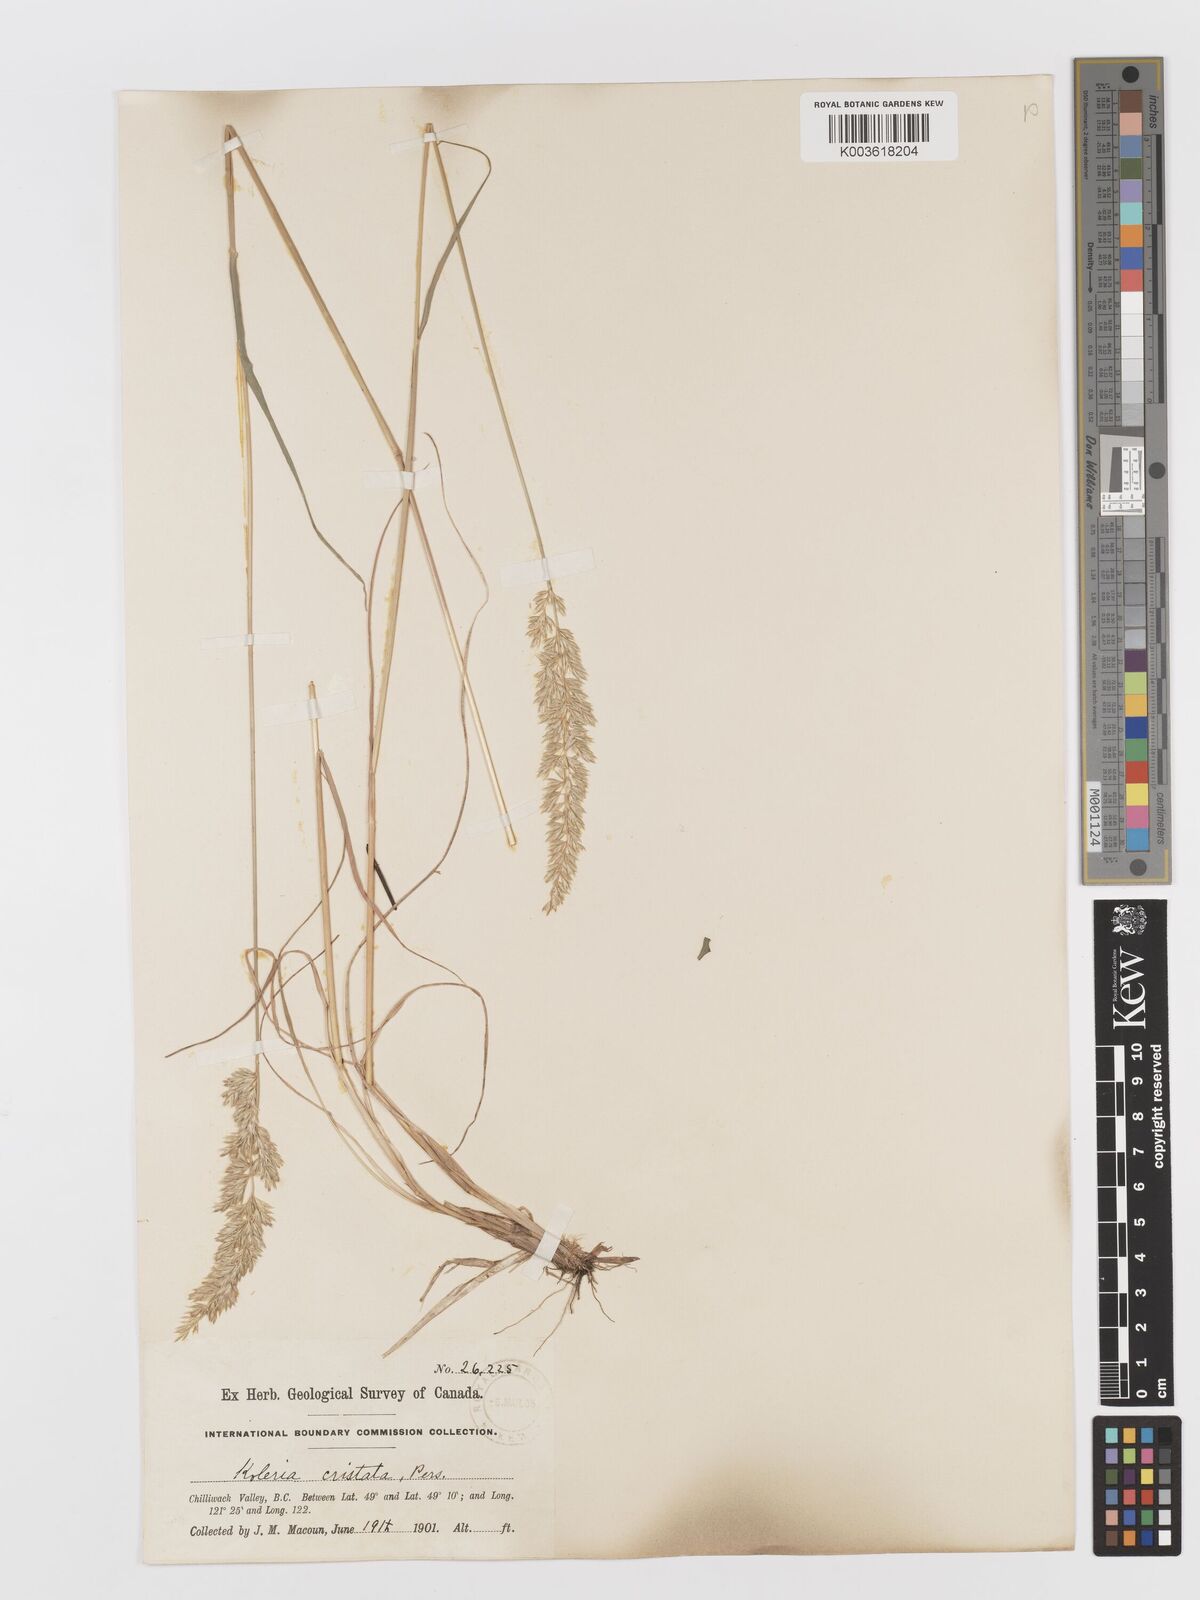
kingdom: Plantae
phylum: Tracheophyta
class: Liliopsida
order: Poales
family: Poaceae
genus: Koeleria
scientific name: Koeleria
